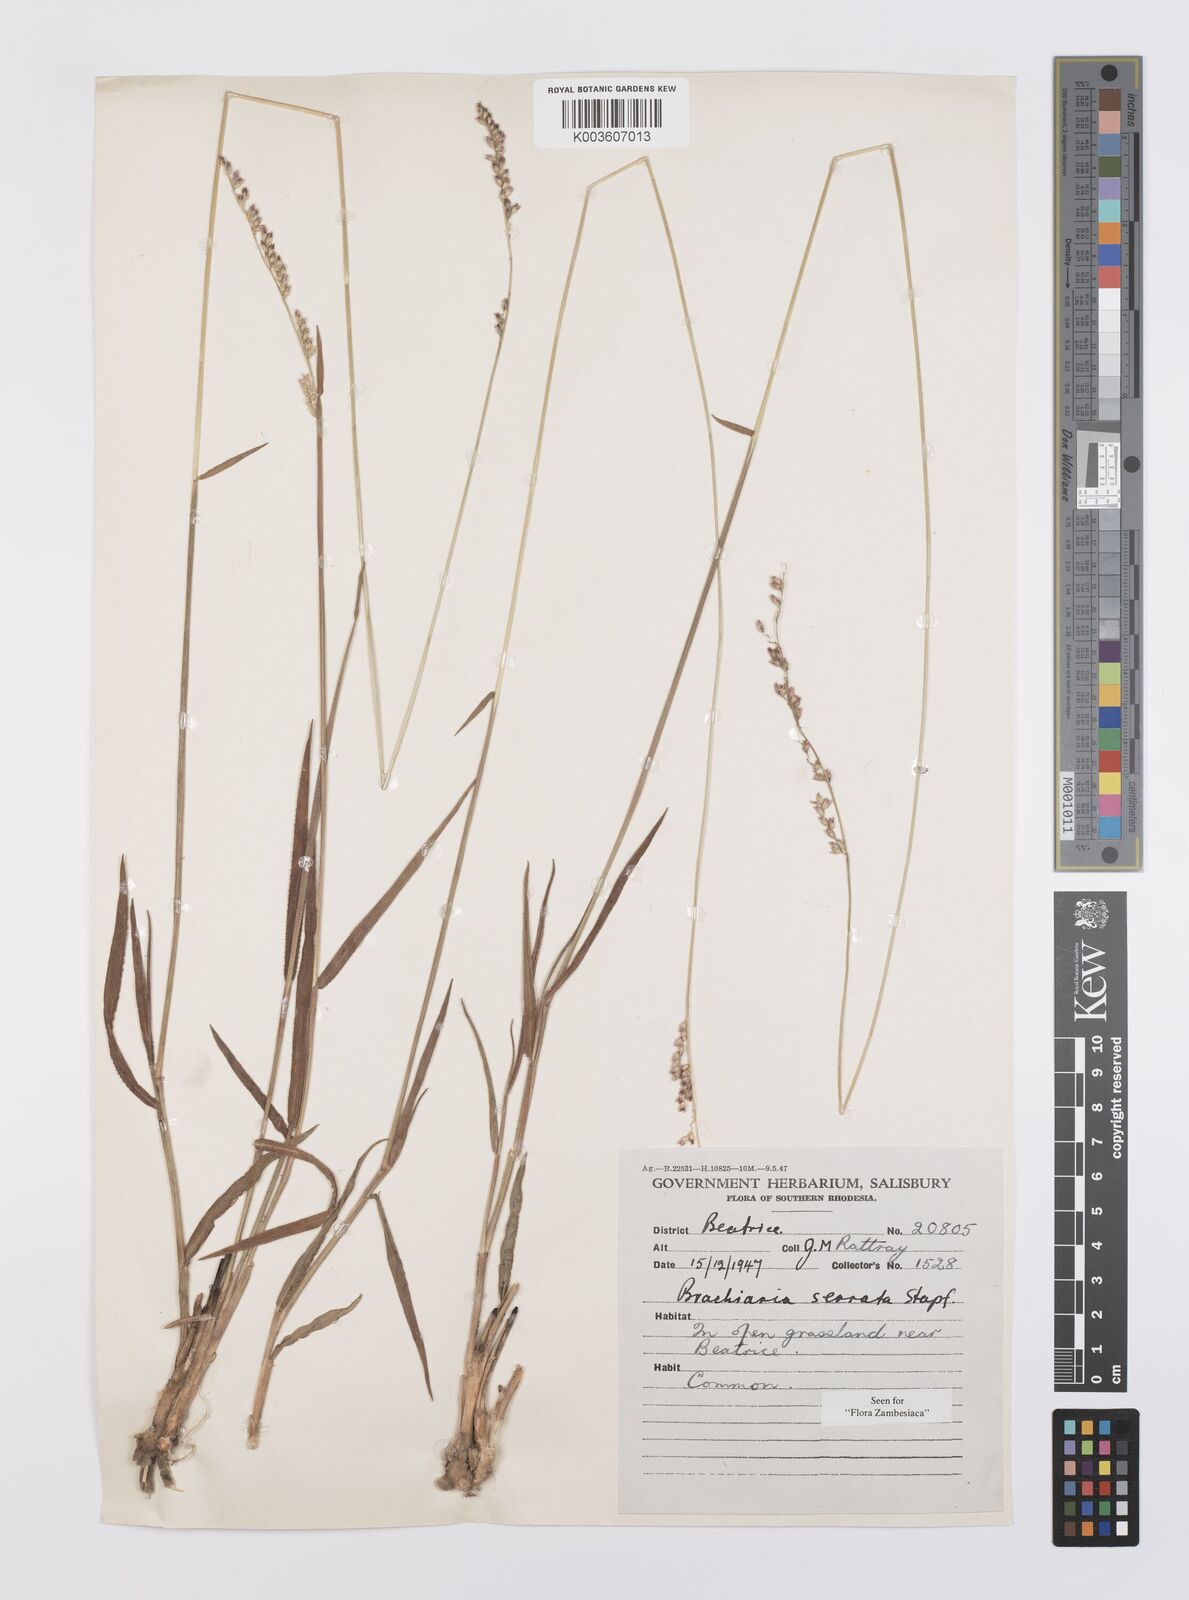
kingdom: Plantae
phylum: Tracheophyta
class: Liliopsida
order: Poales
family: Poaceae
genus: Urochloa
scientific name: Urochloa serrata
